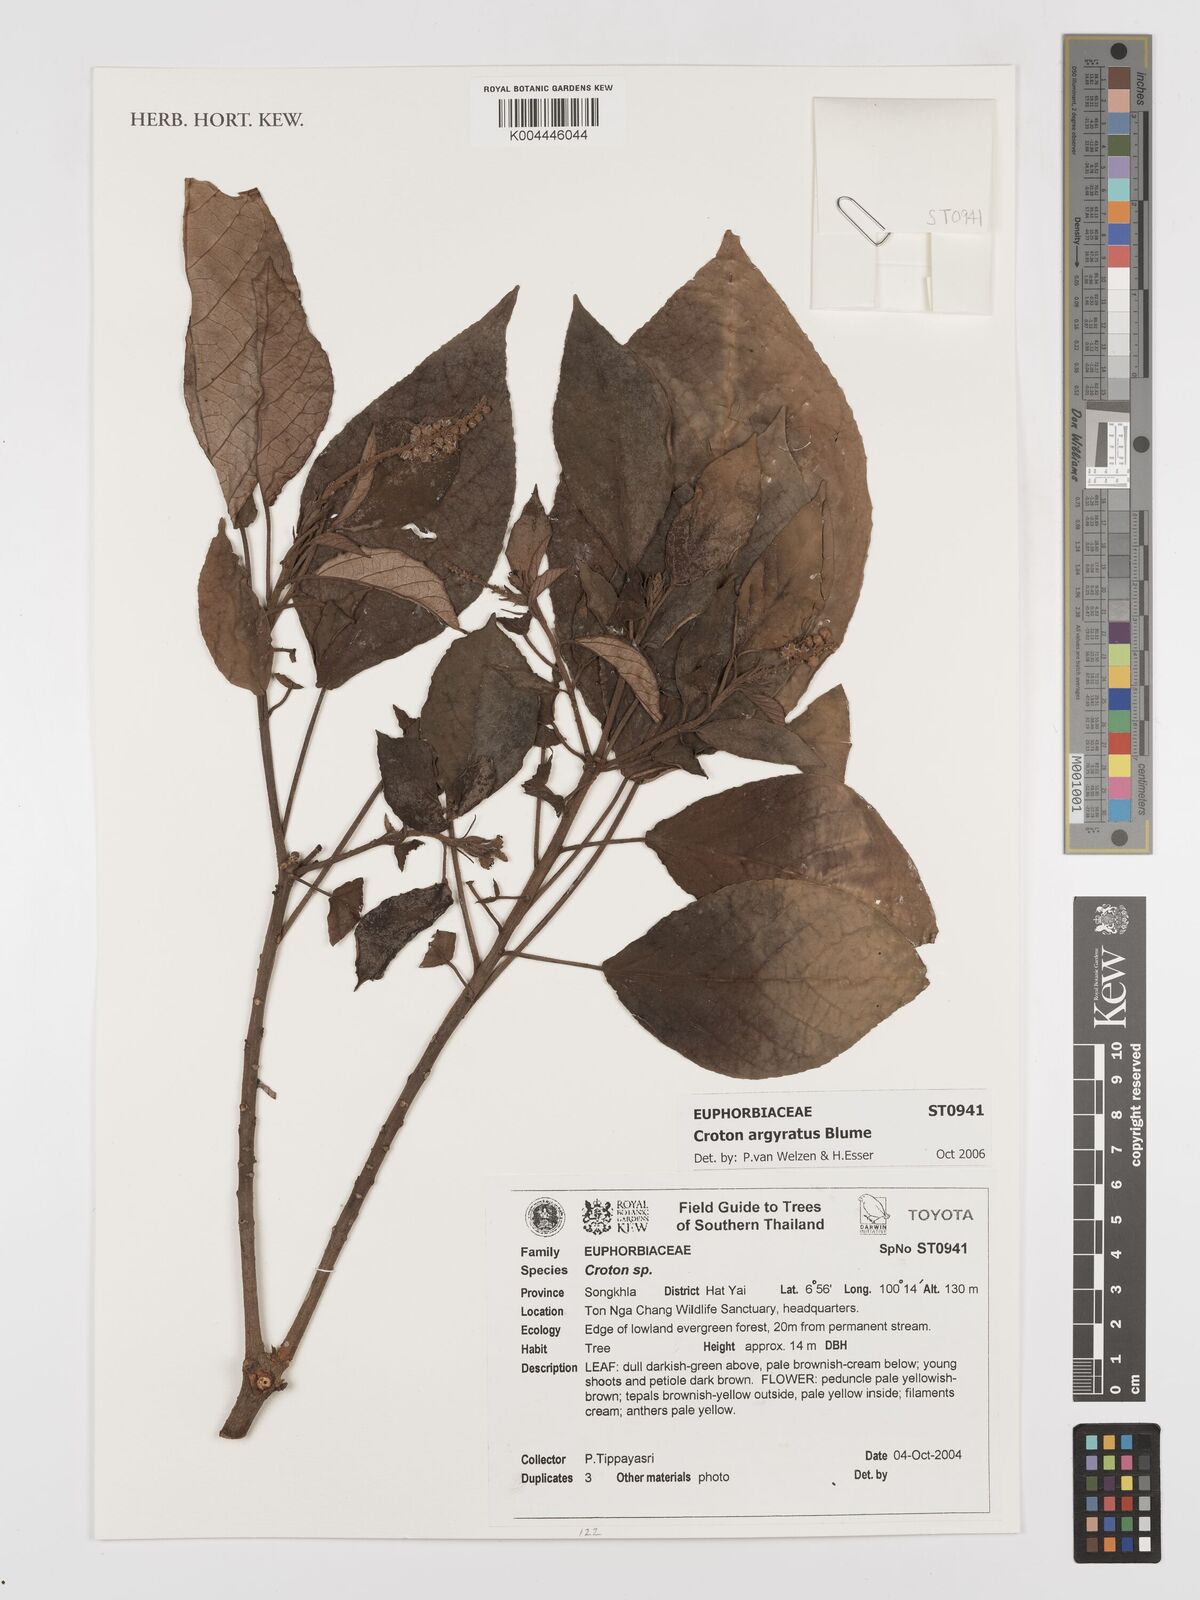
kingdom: Plantae
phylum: Tracheophyta
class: Magnoliopsida
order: Malpighiales
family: Euphorbiaceae
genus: Croton
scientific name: Croton argyratus
